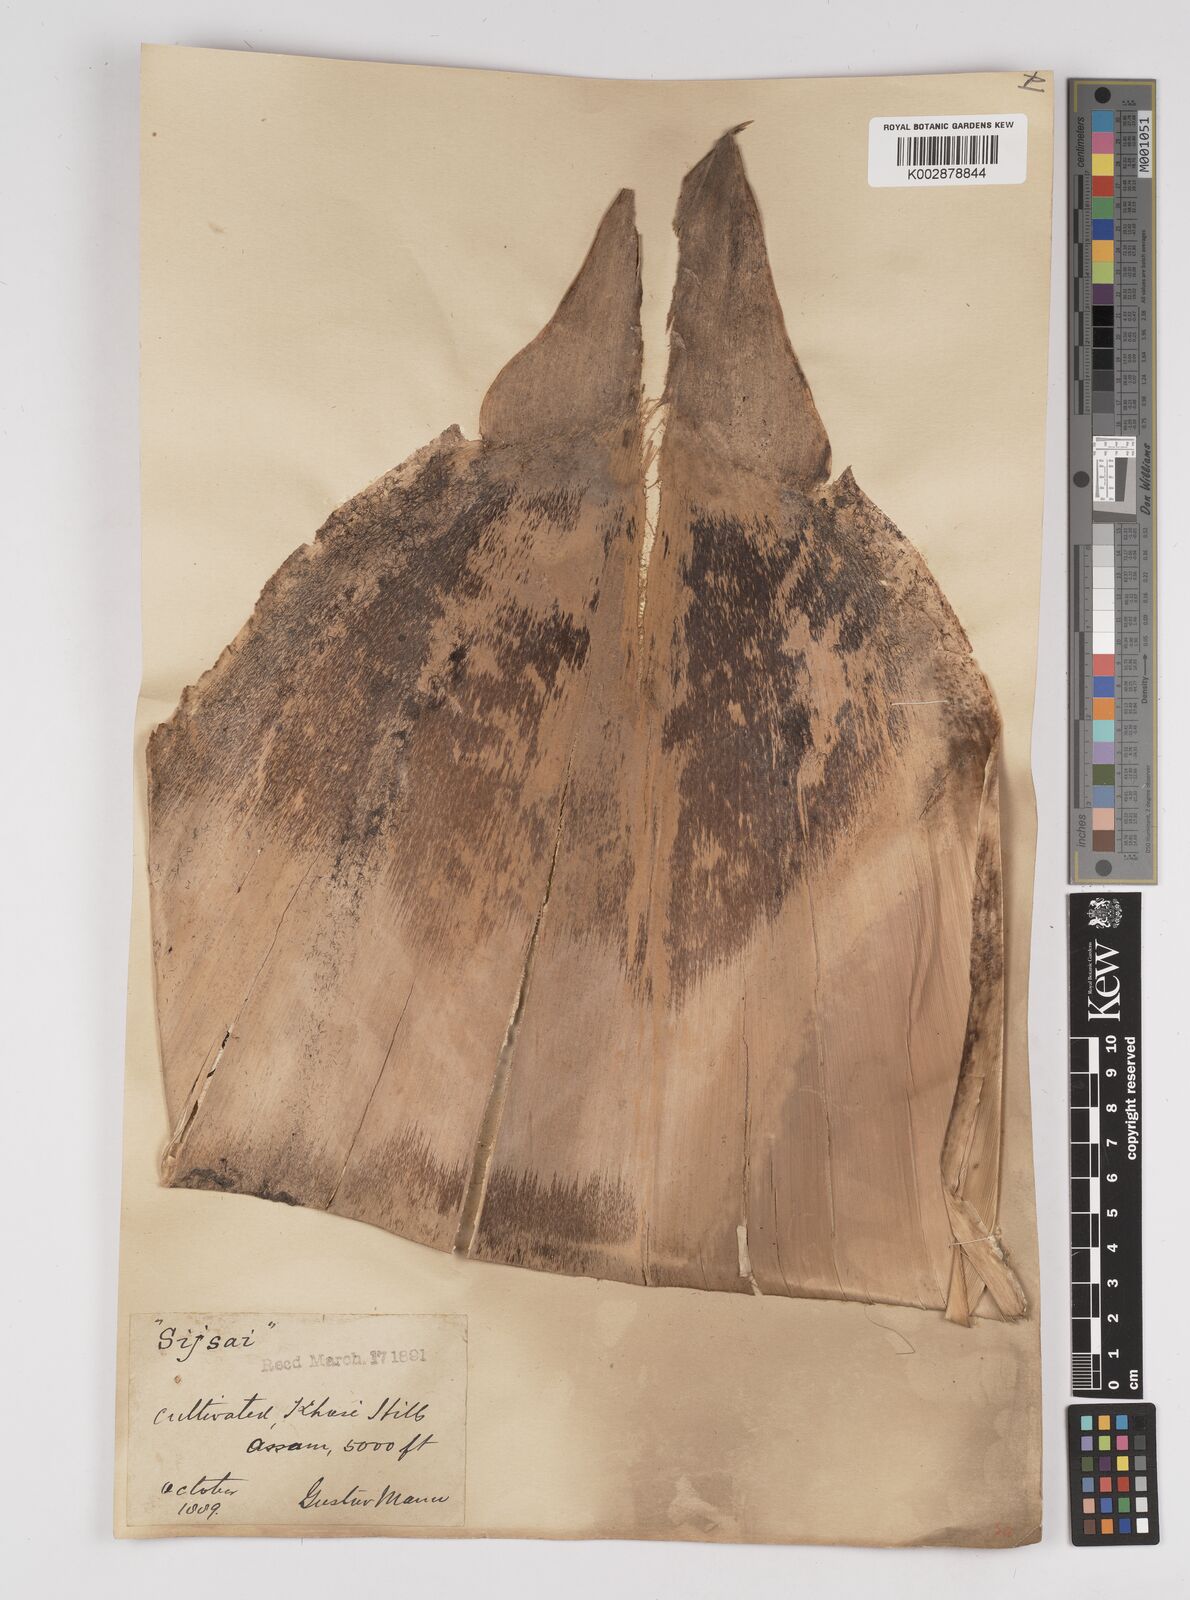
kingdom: Plantae
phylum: Tracheophyta
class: Liliopsida
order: Poales
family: Poaceae
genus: Dendrocalamus
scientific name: Dendrocalamus hookeri
